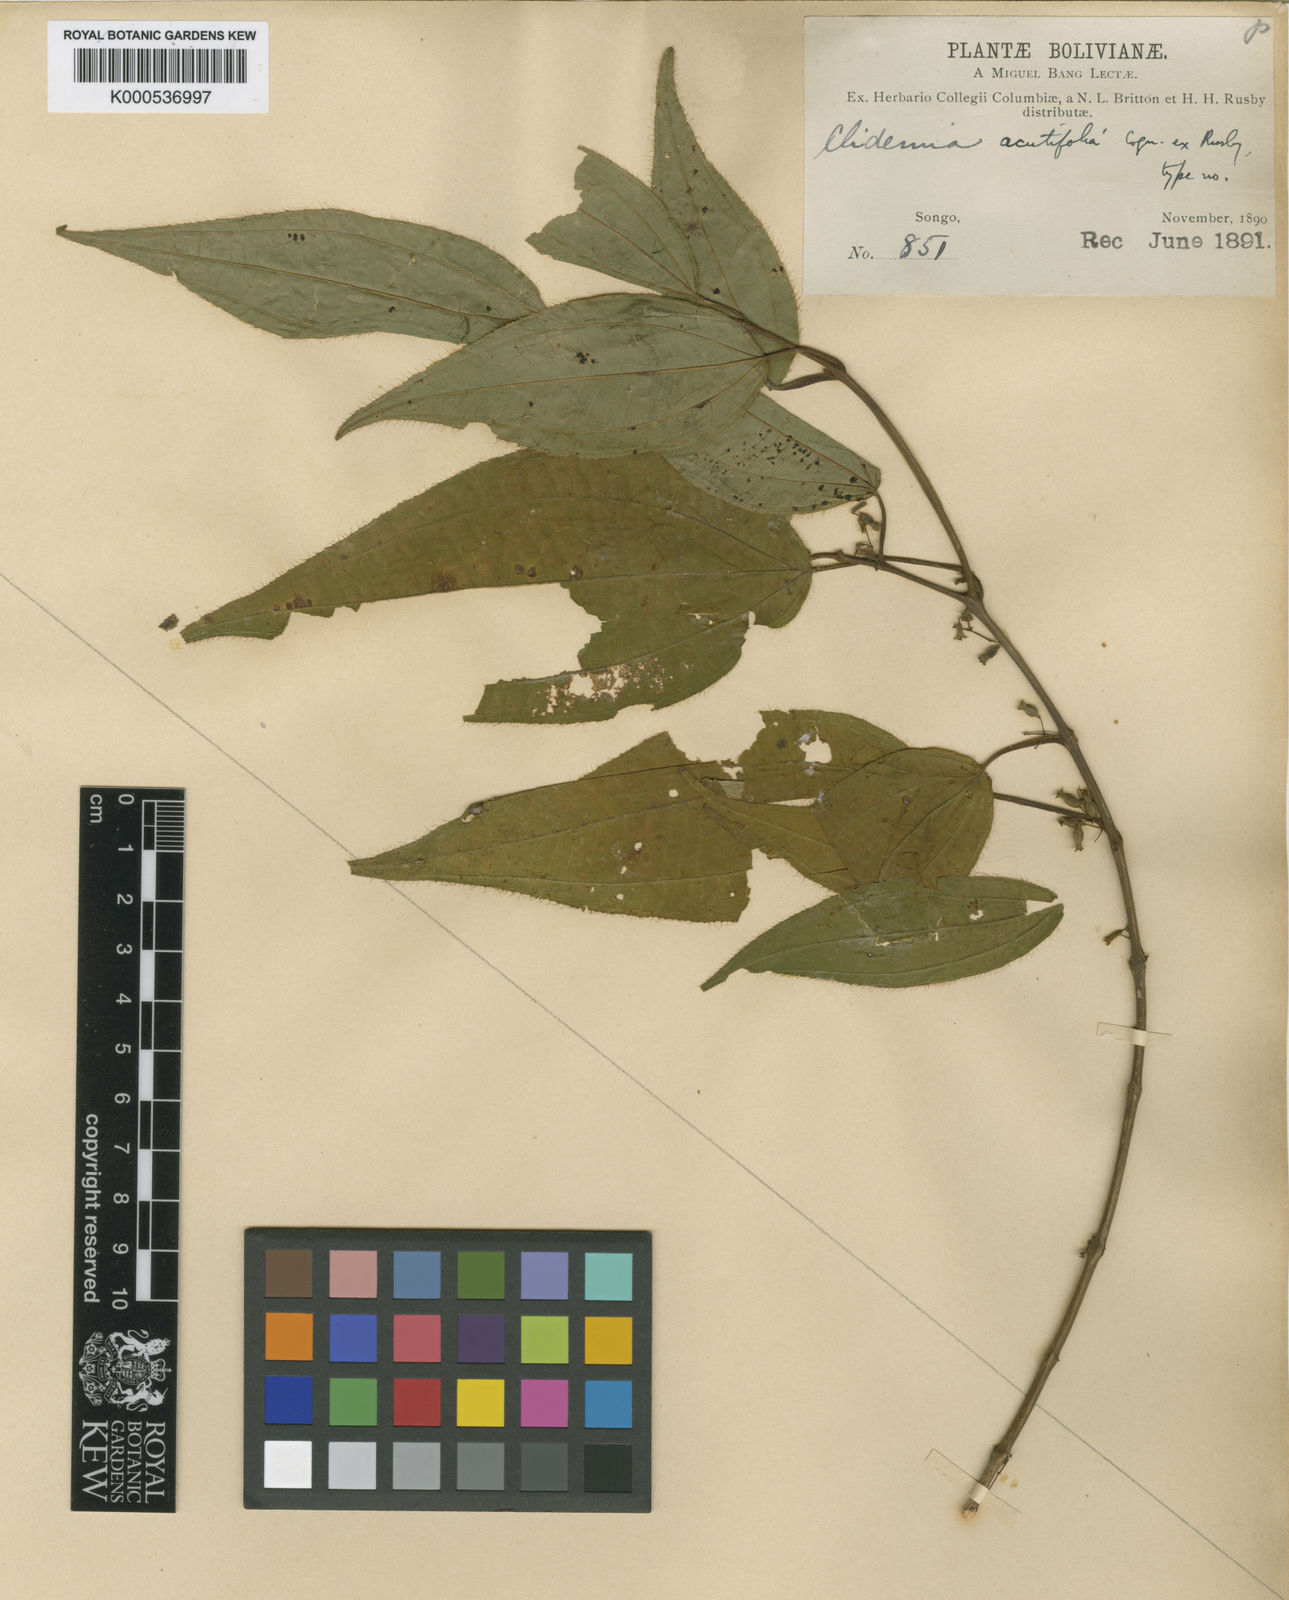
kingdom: Plantae
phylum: Tracheophyta
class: Magnoliopsida
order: Myrtales
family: Melastomataceae
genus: Miconia
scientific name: Miconia acutilamina
